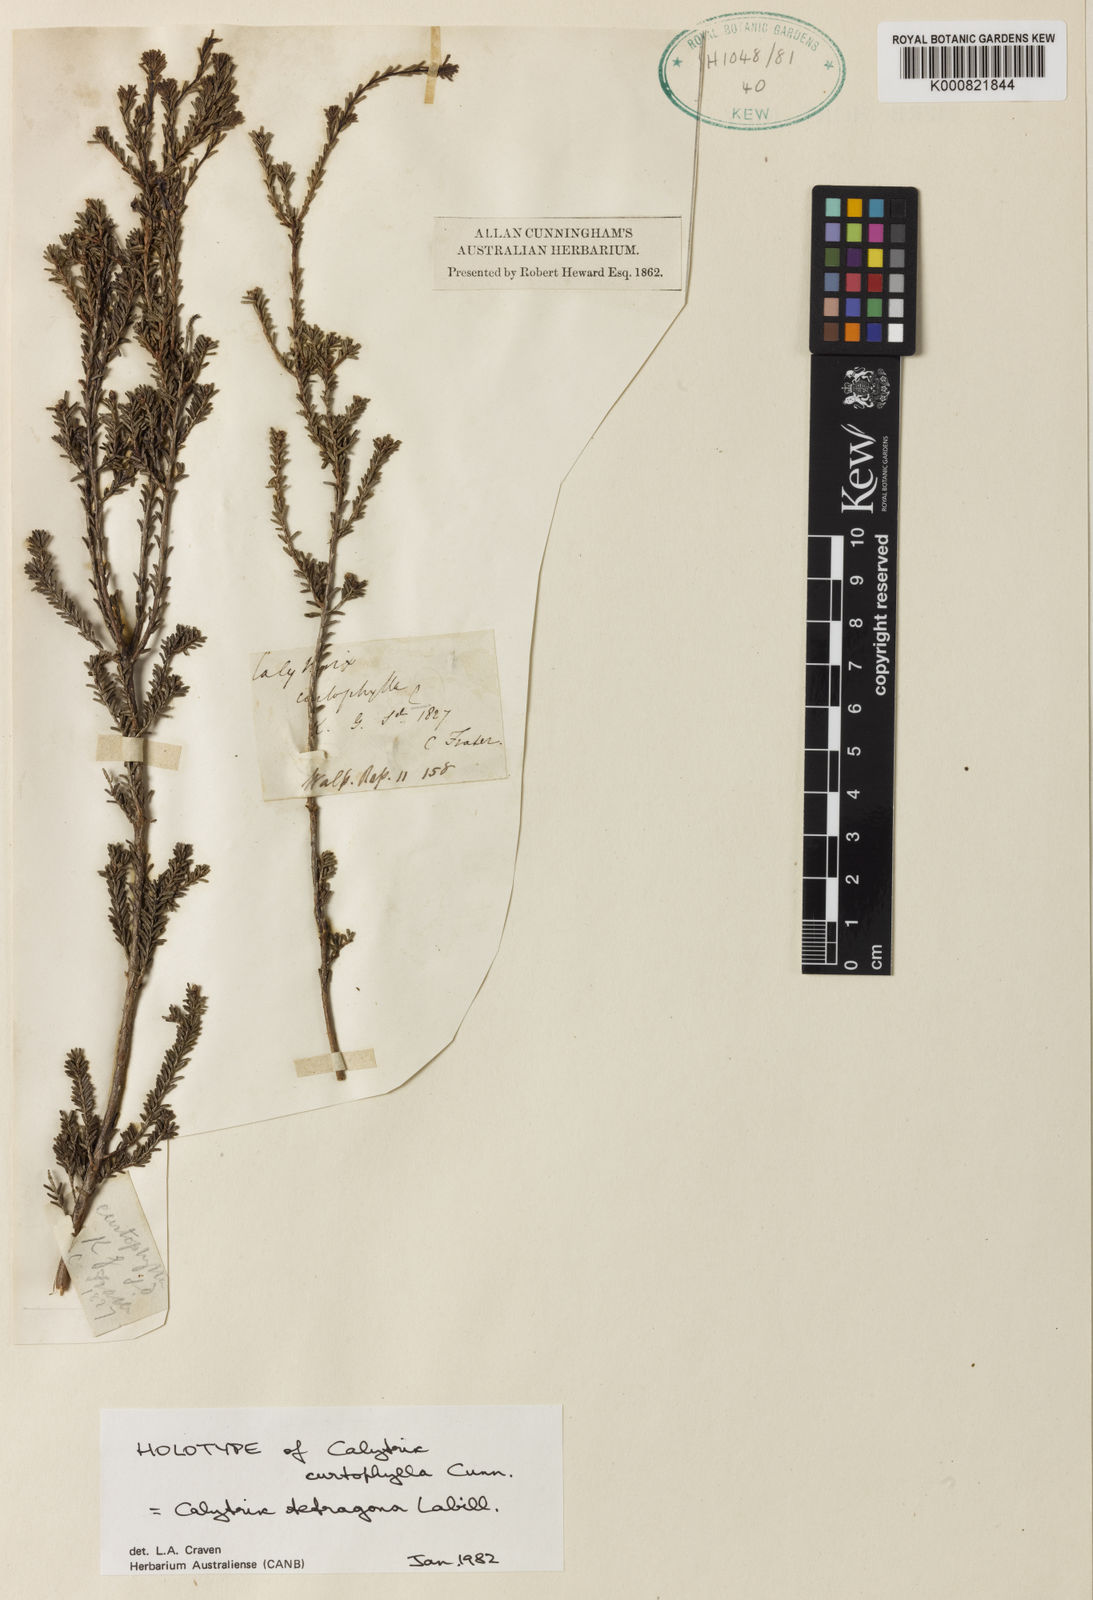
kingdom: Plantae
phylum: Tracheophyta
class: Magnoliopsida
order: Myrtales
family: Myrtaceae
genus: Calytrix
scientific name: Calytrix tetragona
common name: Common fringe myrtle
